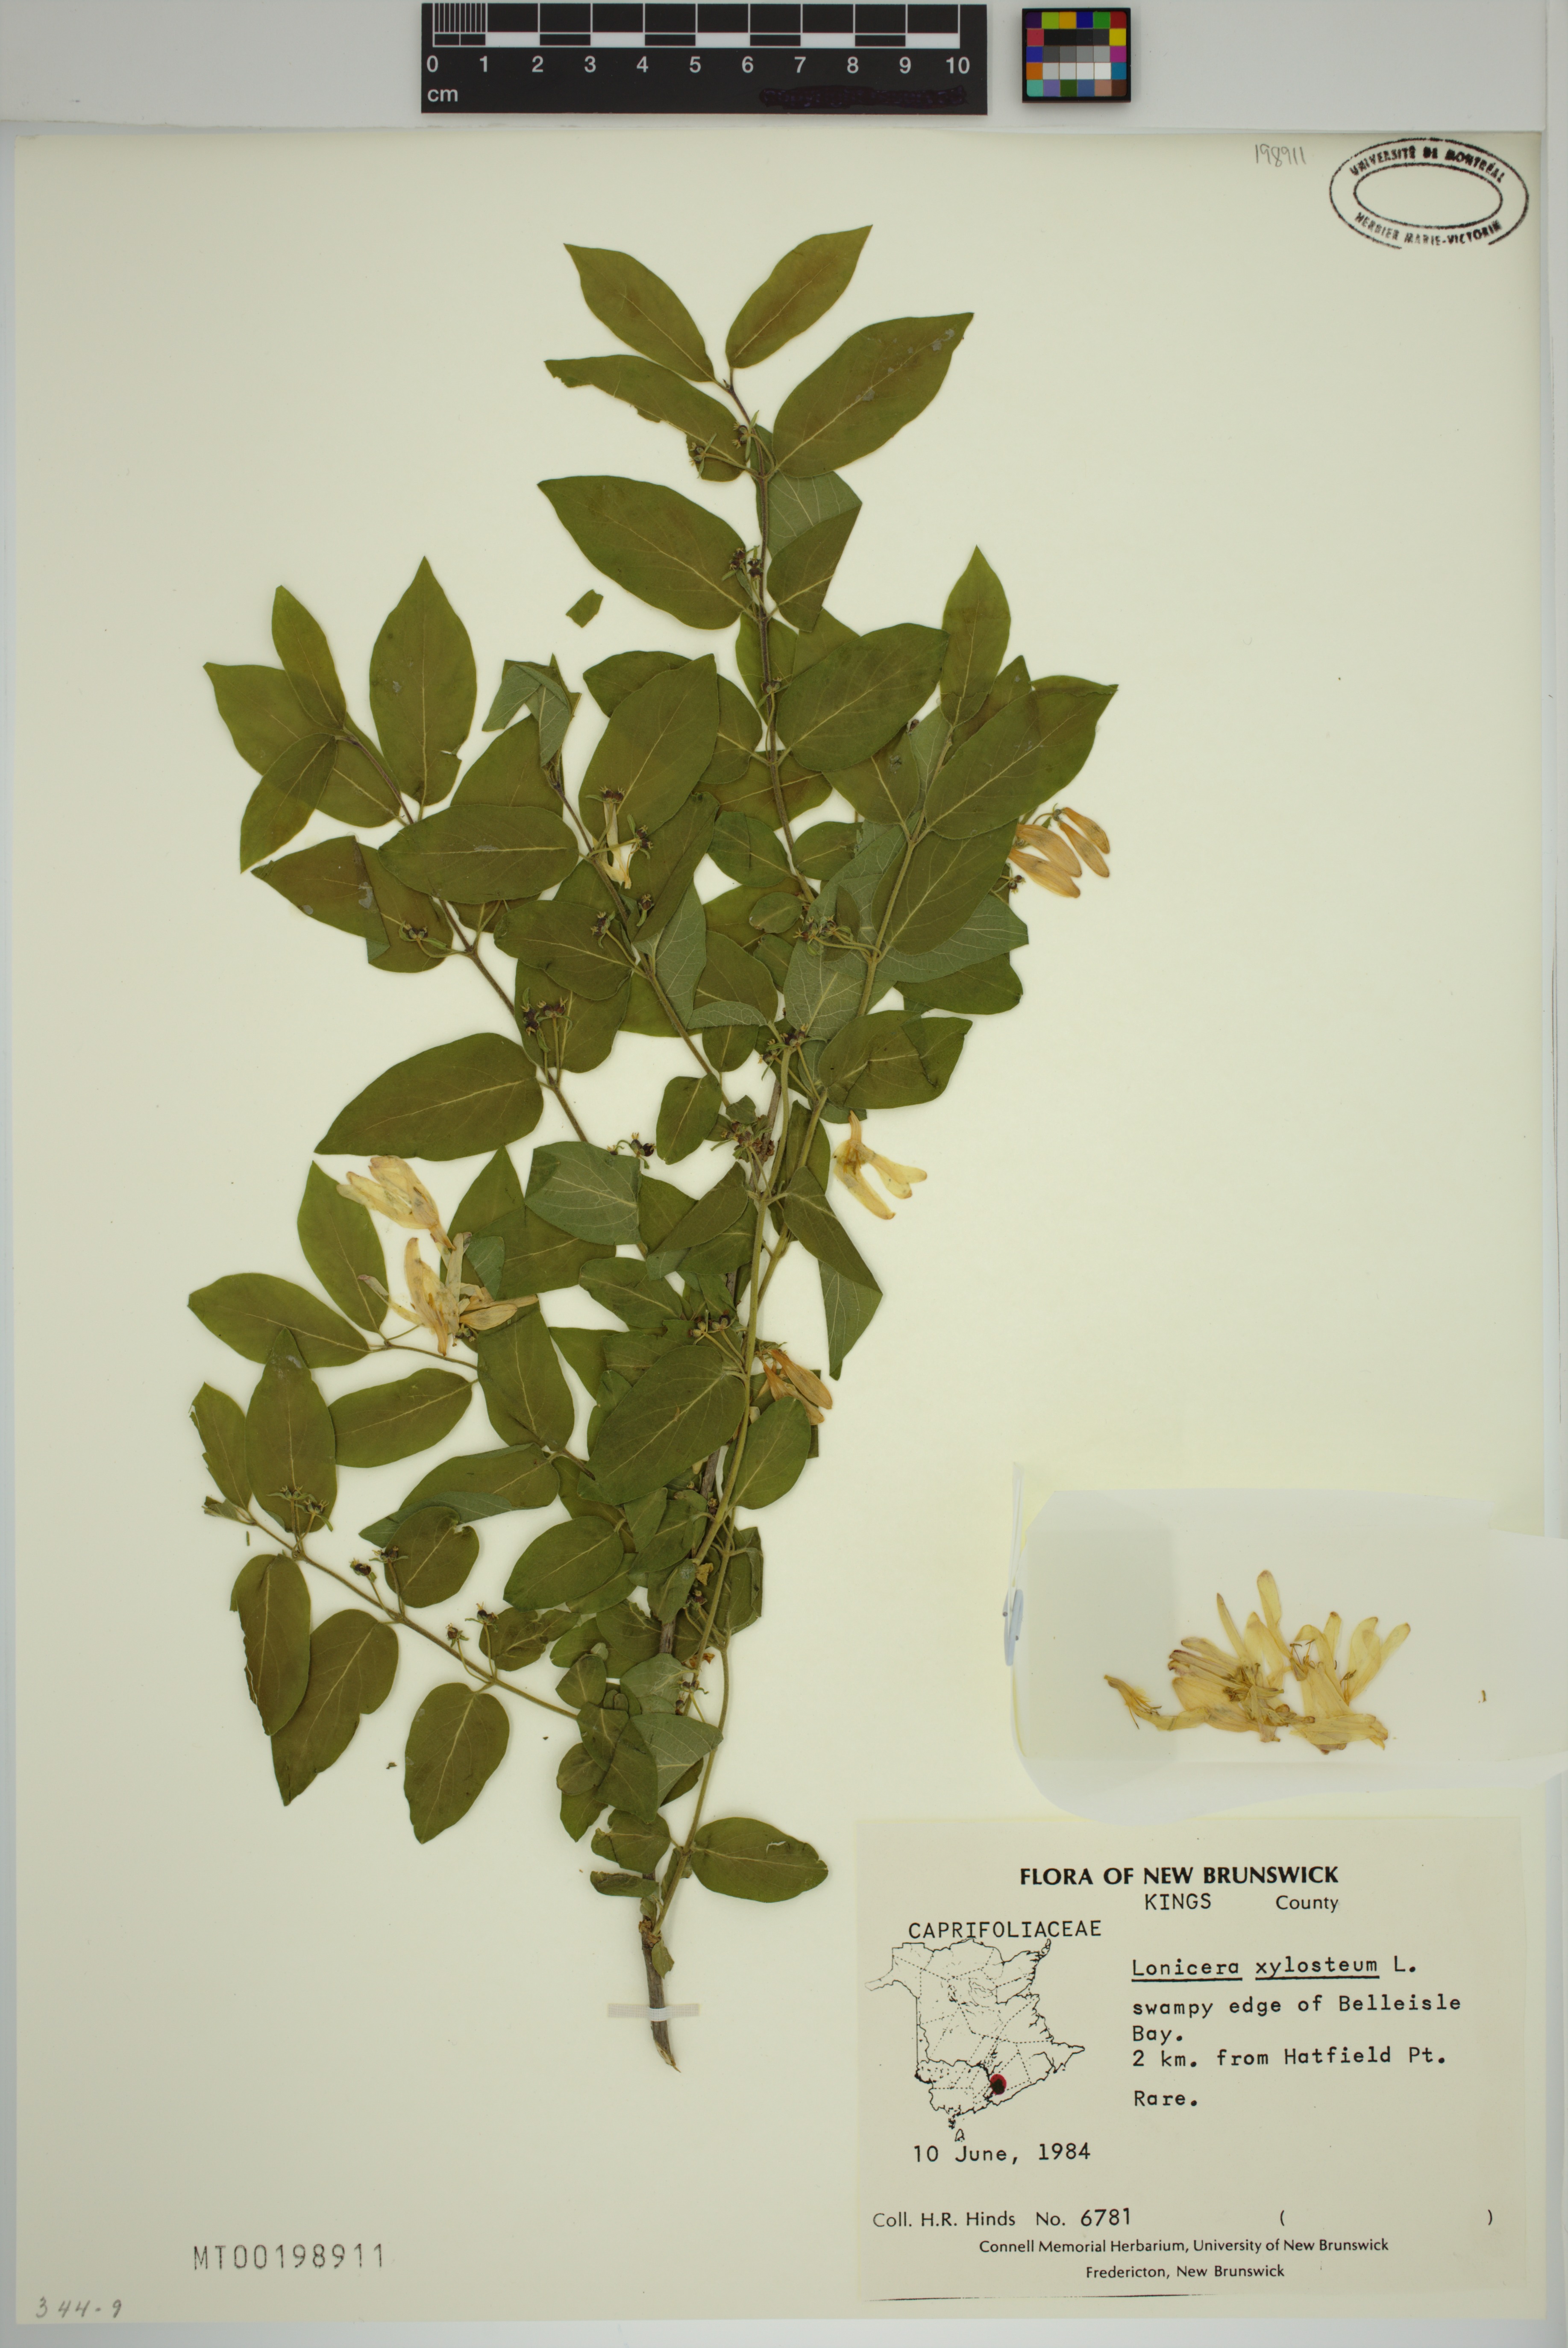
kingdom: Plantae
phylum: Tracheophyta
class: Magnoliopsida
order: Dipsacales
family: Caprifoliaceae
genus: Lonicera
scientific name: Lonicera morrowii
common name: Morrow's honeysuckle
